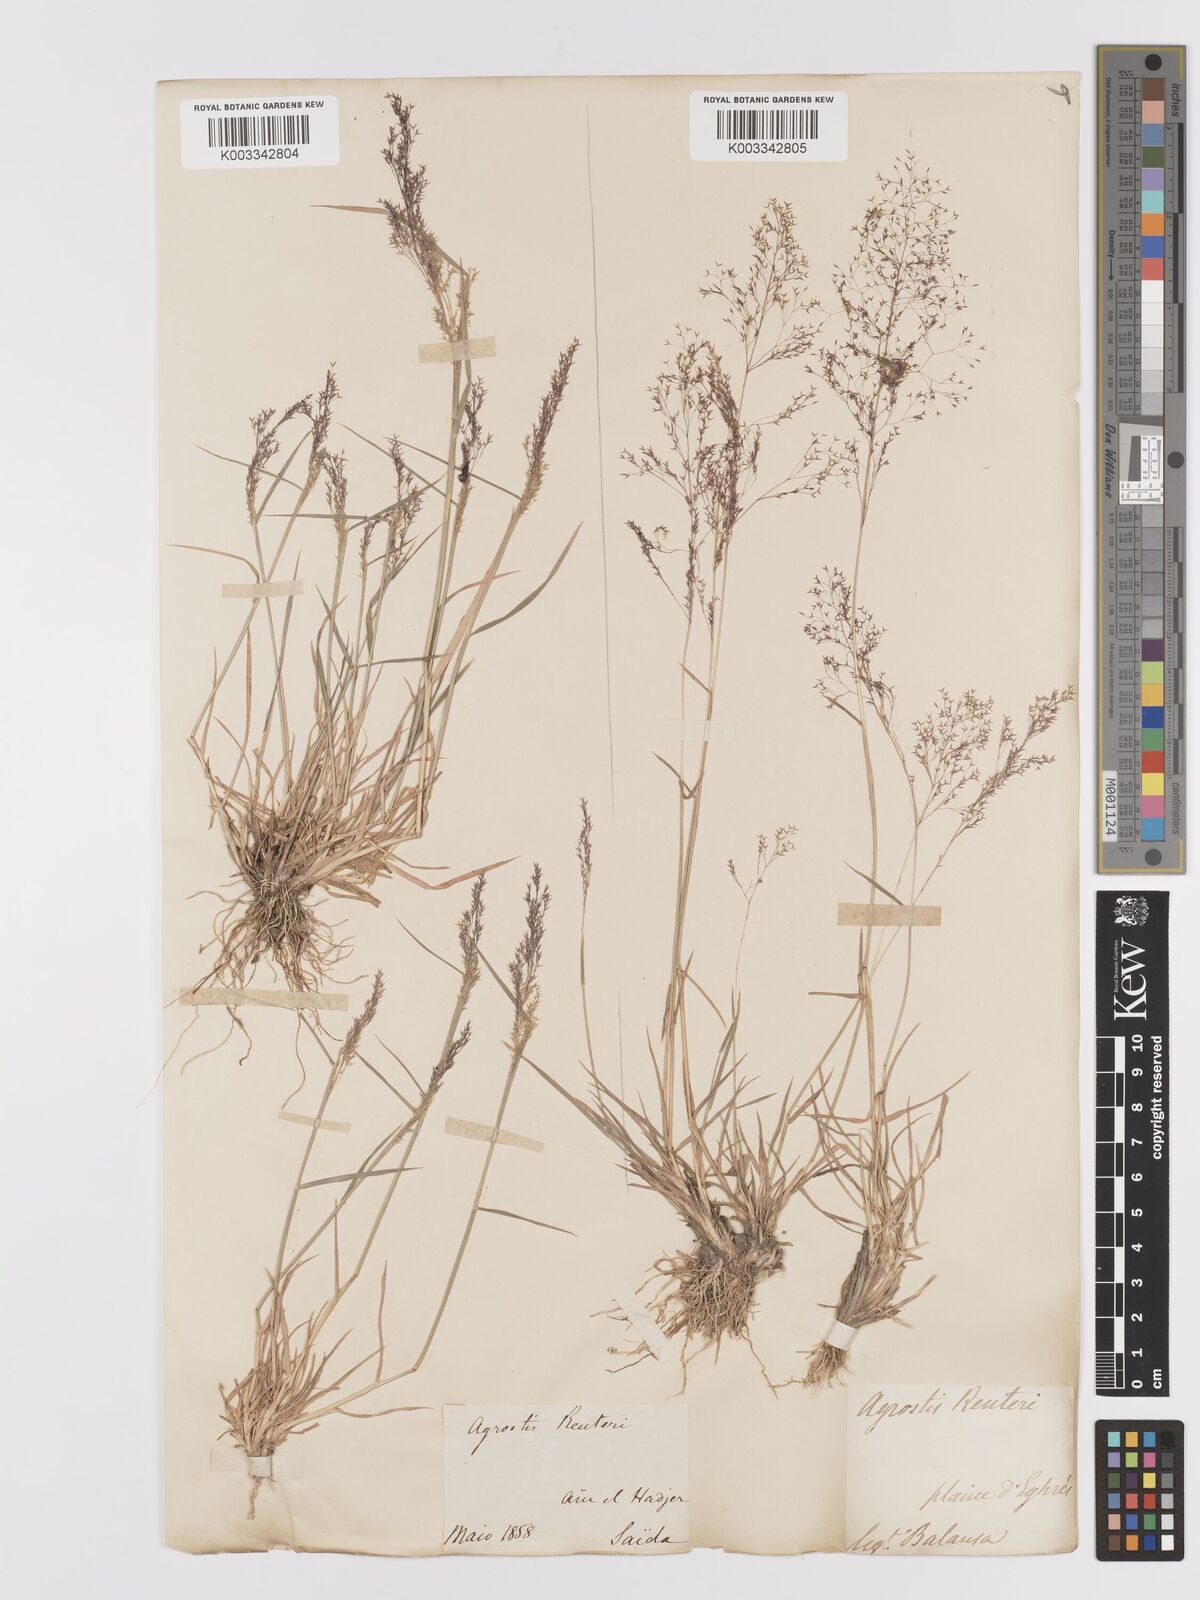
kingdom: Plantae
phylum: Tracheophyta
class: Liliopsida
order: Poales
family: Poaceae
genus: Agrostis
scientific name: Agrostis reuteri
